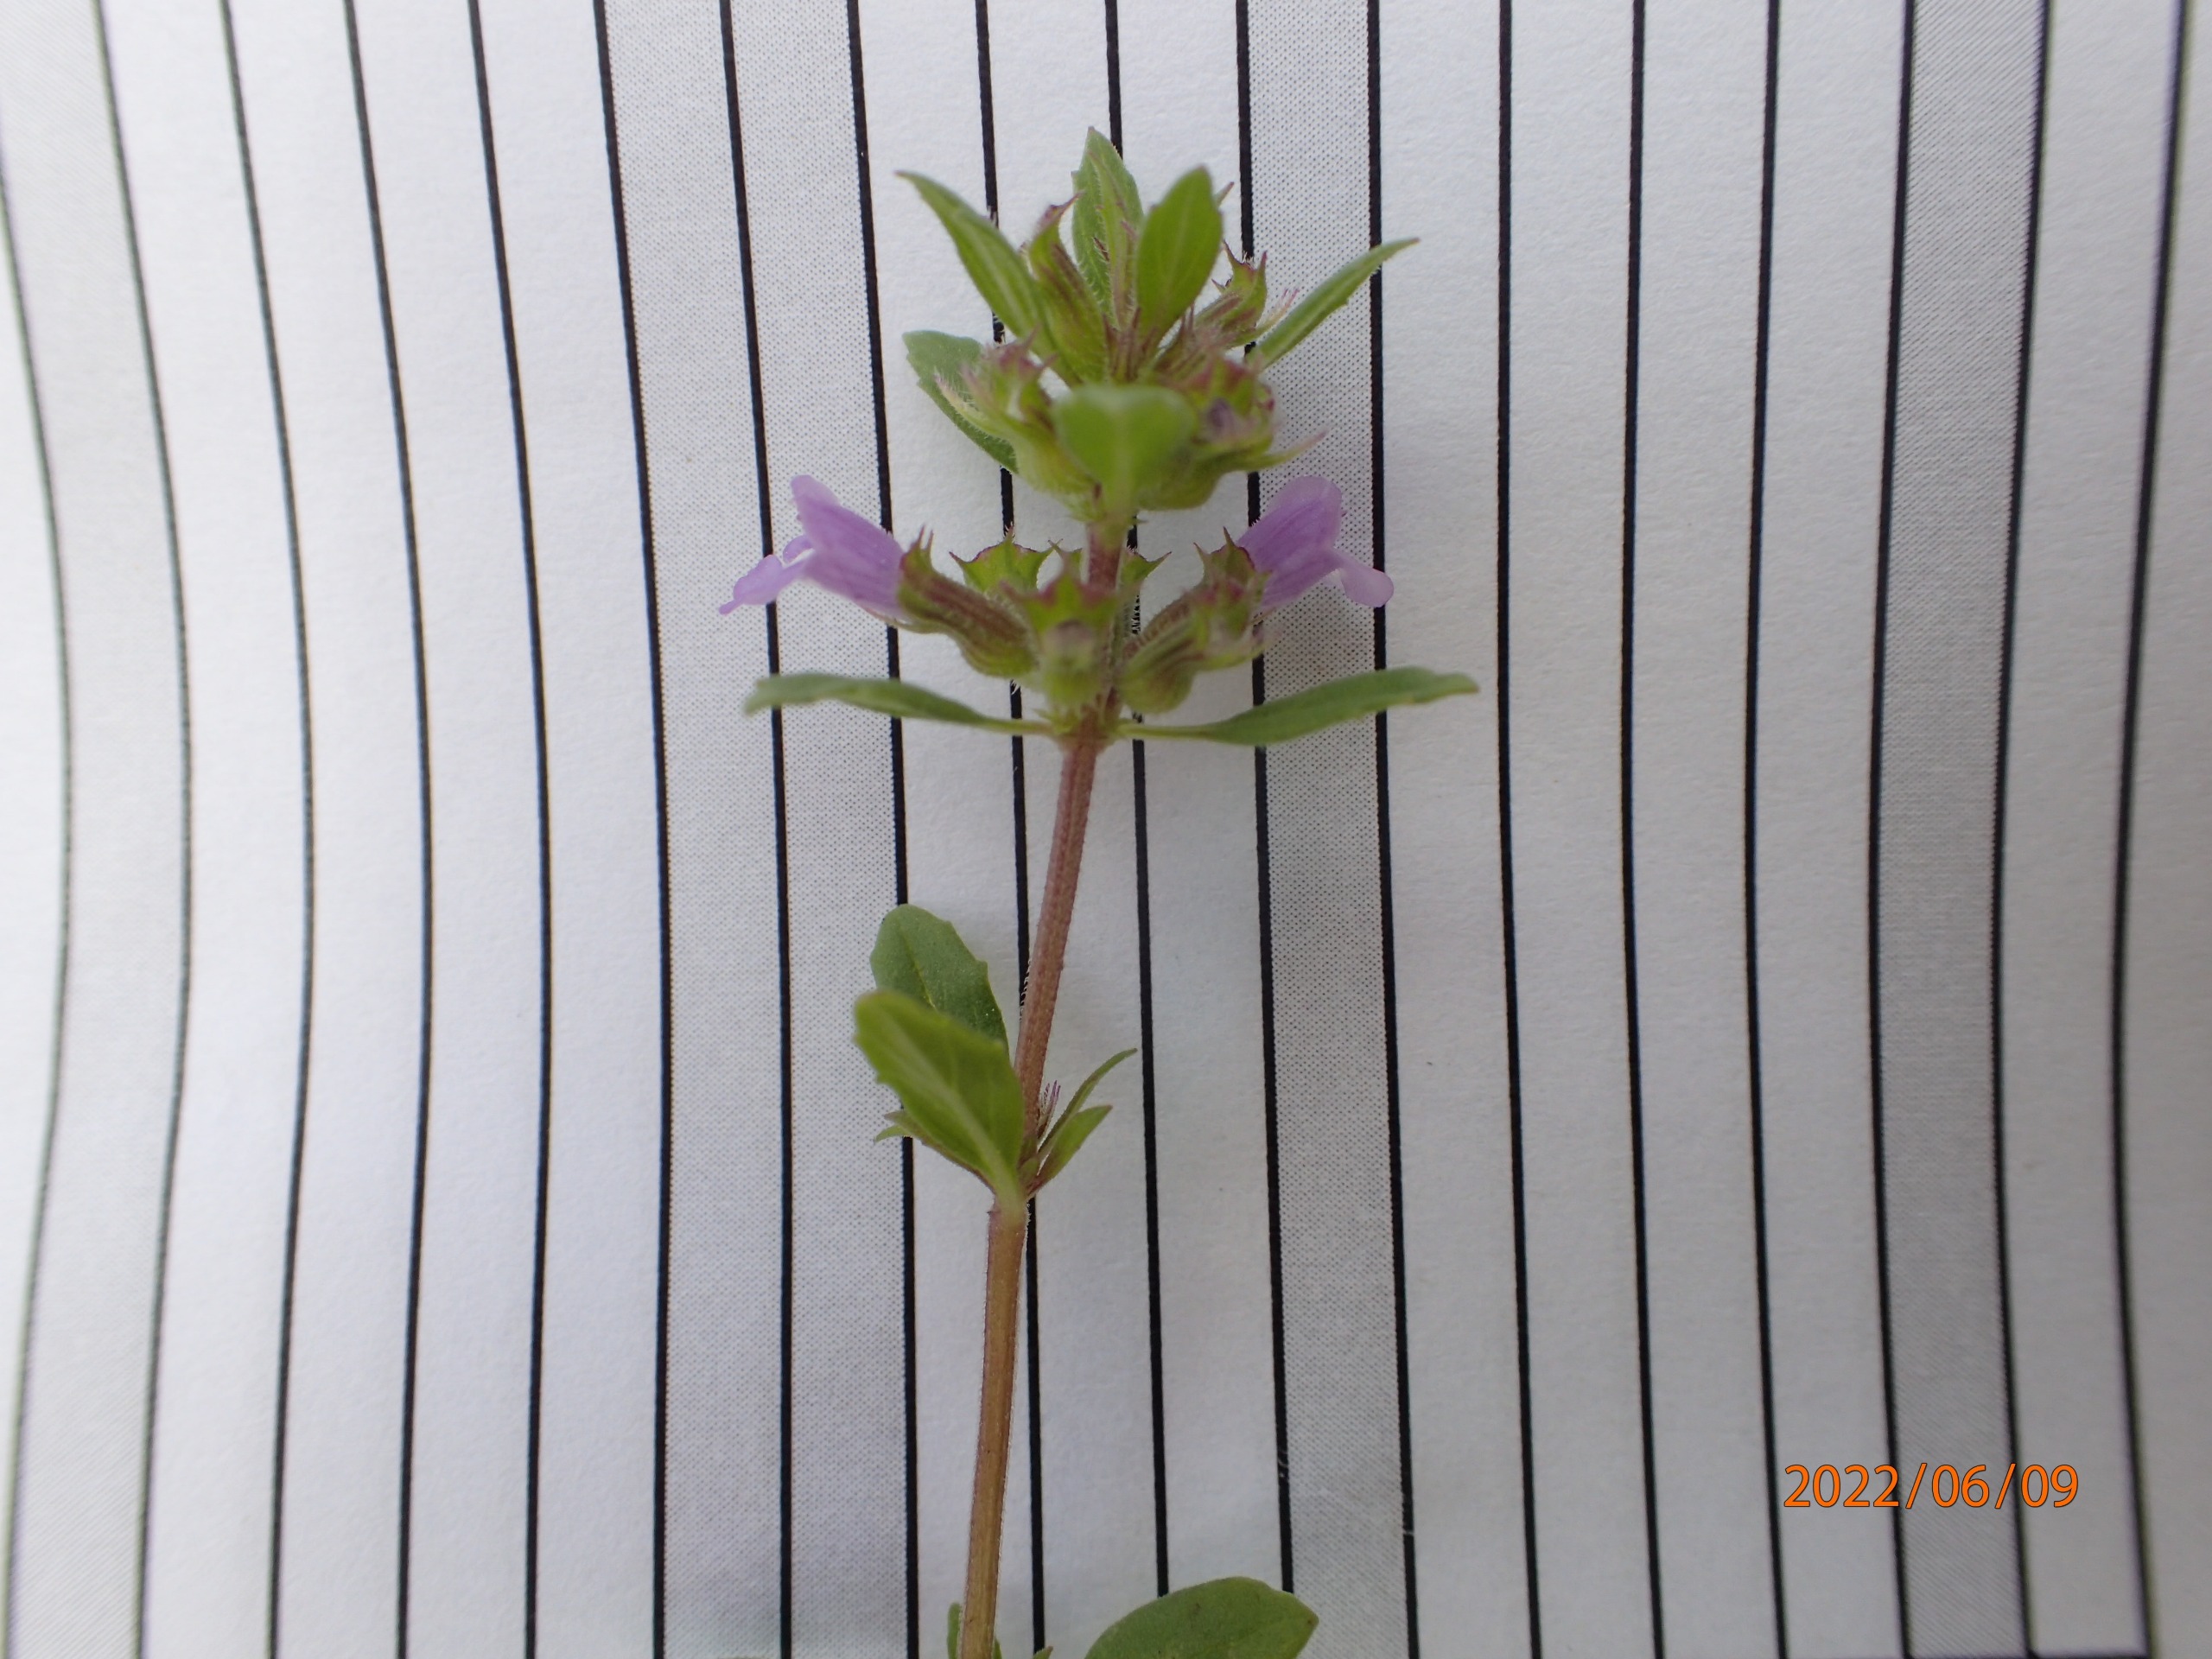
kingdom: Plantae
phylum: Tracheophyta
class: Magnoliopsida
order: Lamiales
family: Lamiaceae
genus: Clinopodium
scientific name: Clinopodium acinos
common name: Voldtimian
